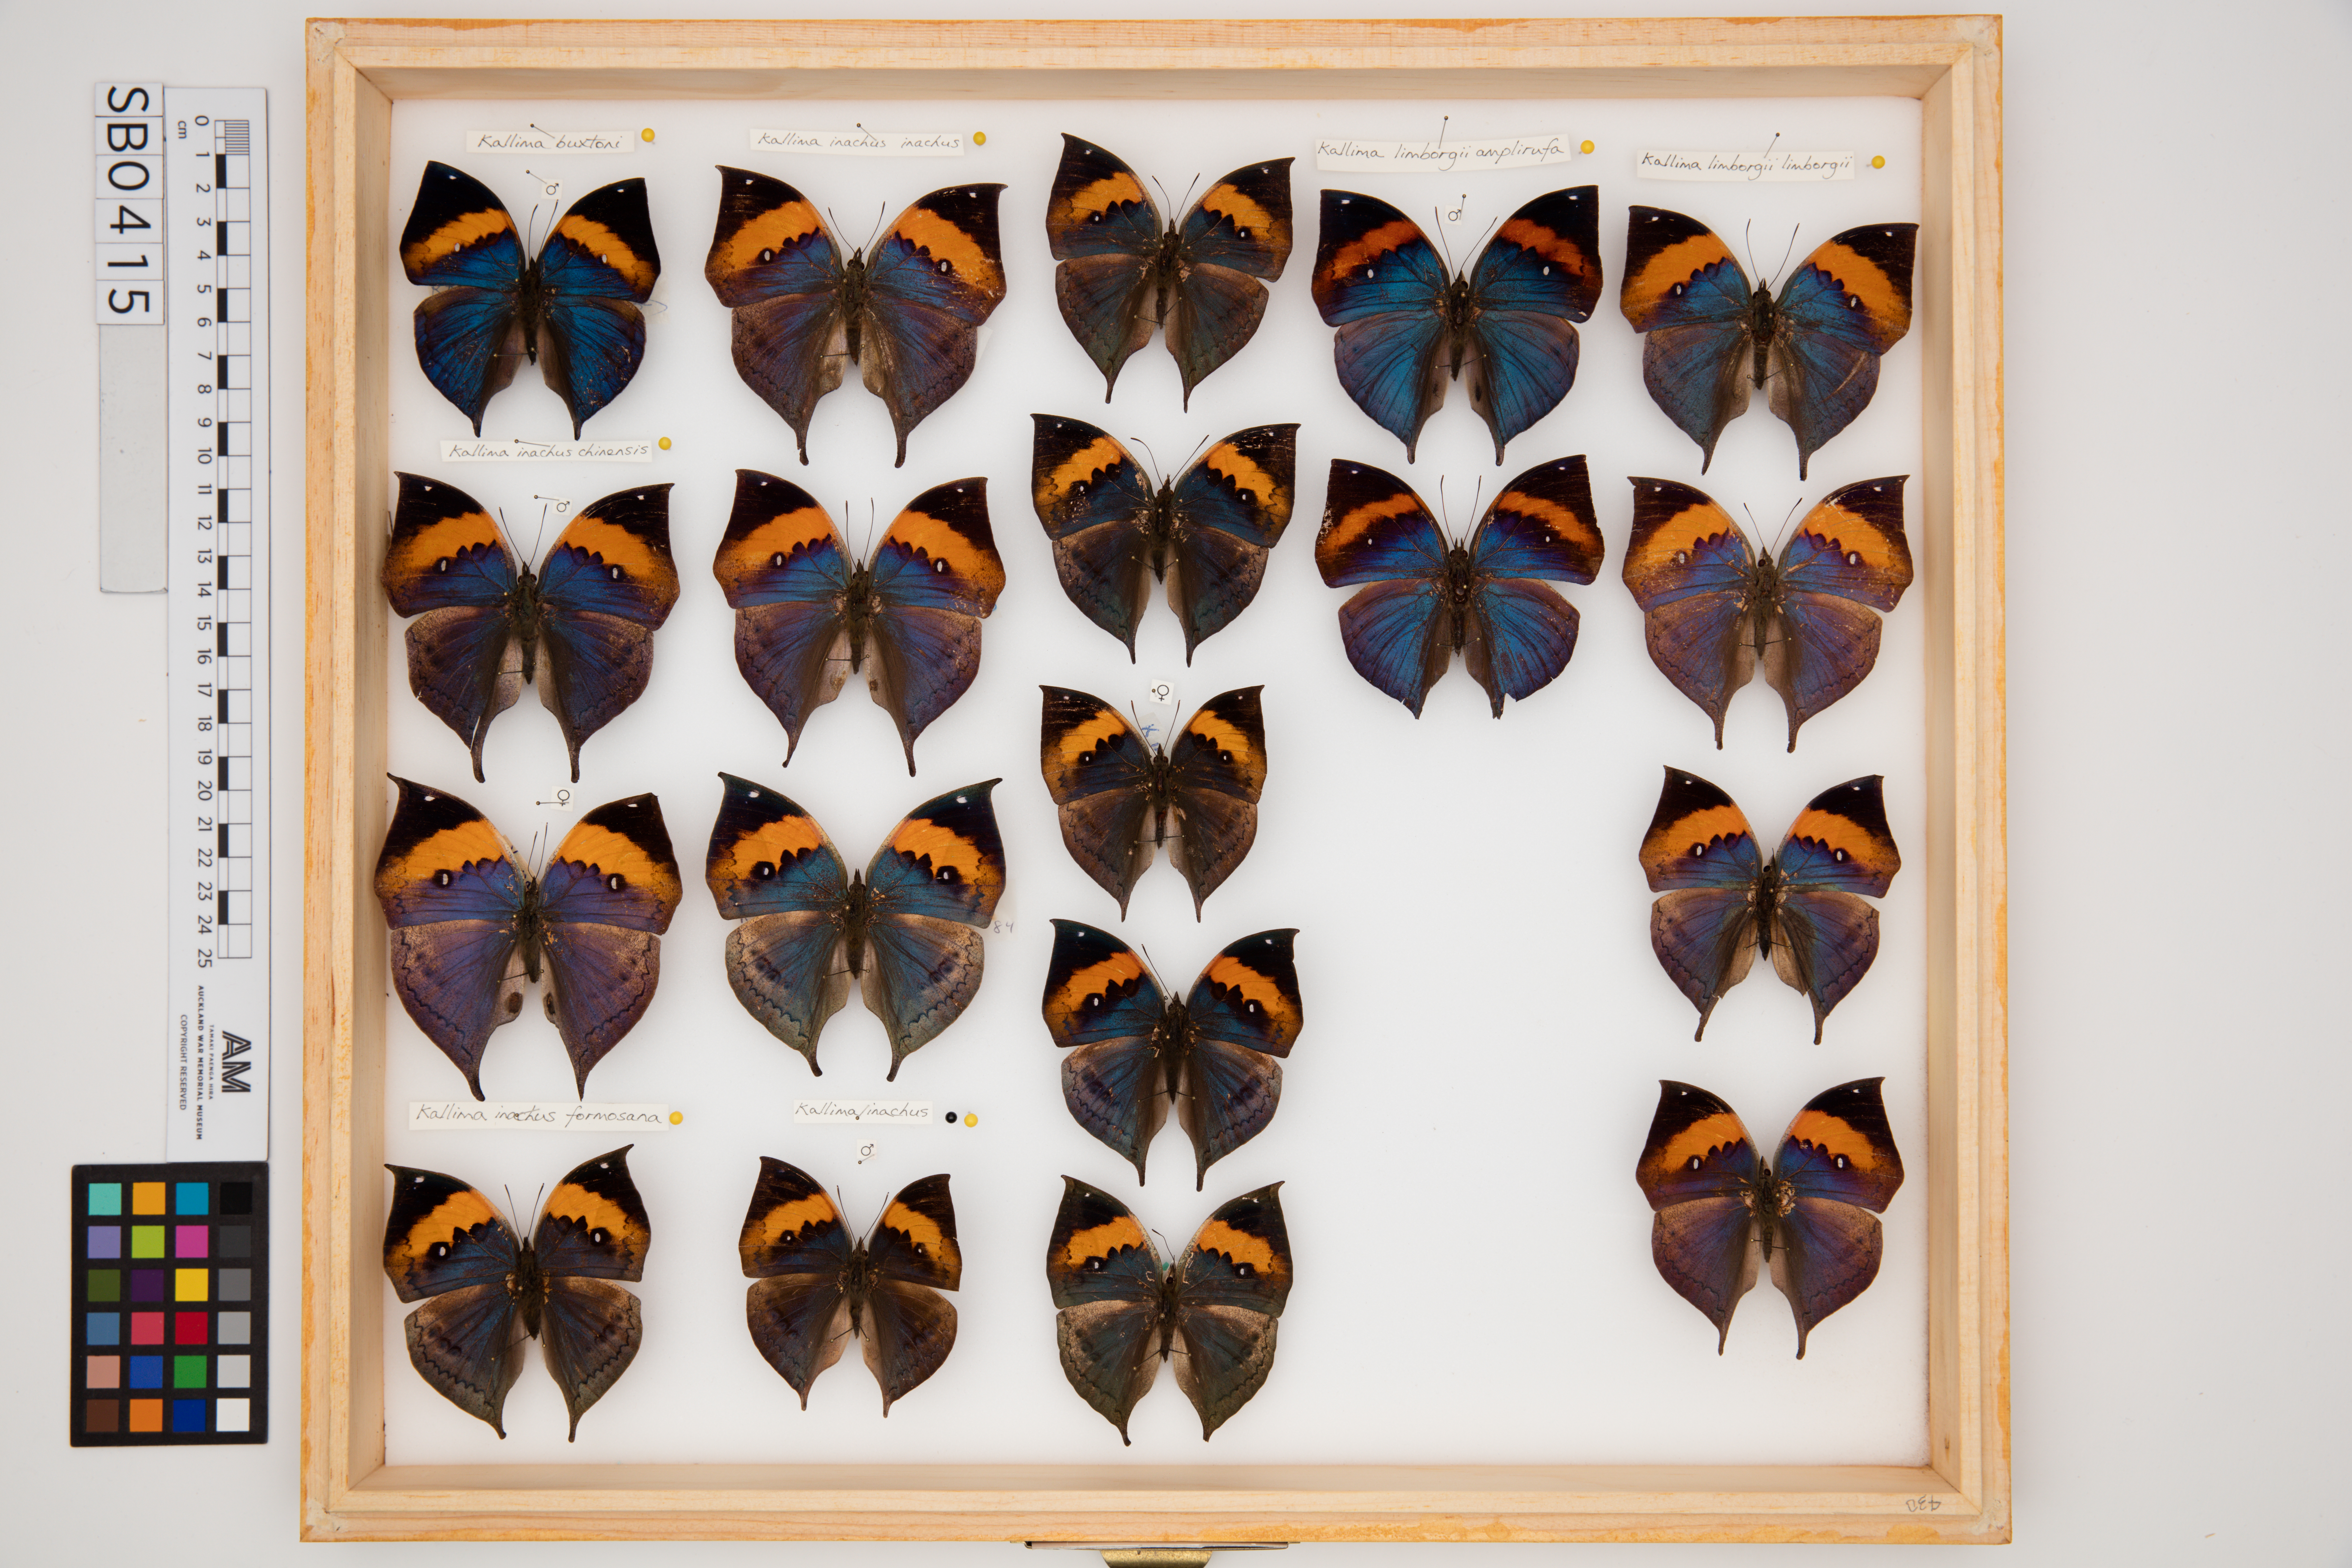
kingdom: Animalia
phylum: Arthropoda
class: Insecta
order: Lepidoptera
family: Nymphalidae
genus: Kallima
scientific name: Kallima inachus
